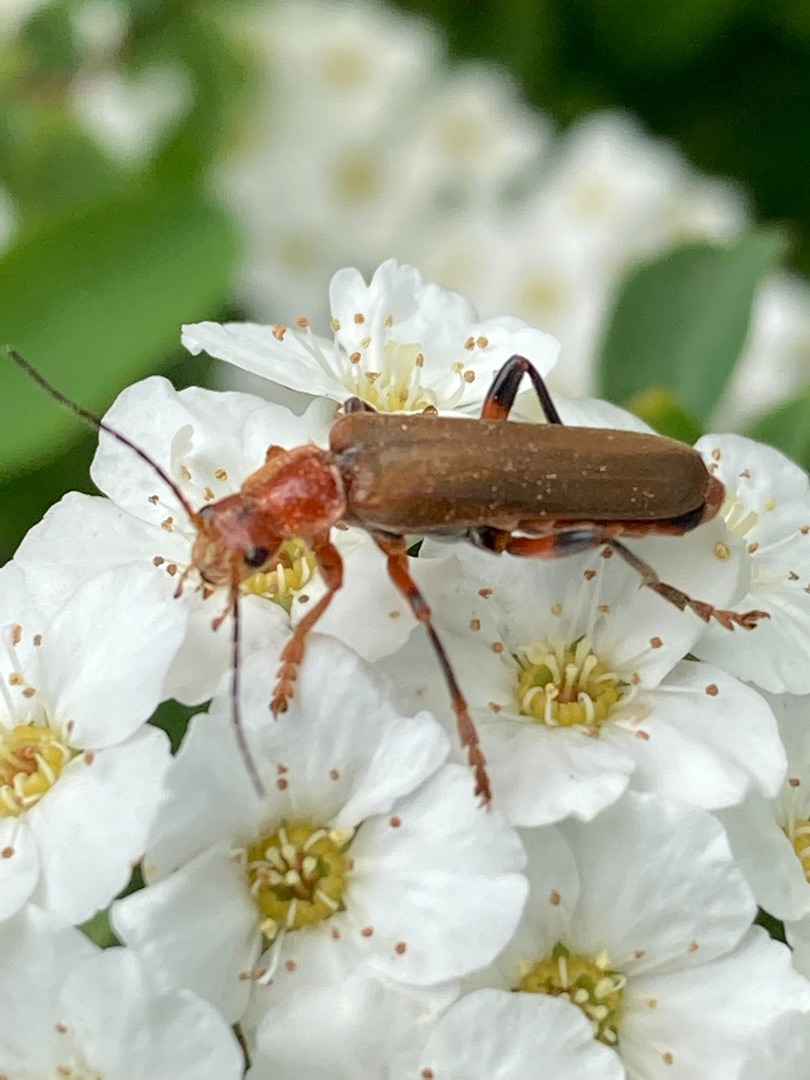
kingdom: Animalia
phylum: Arthropoda
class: Insecta
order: Coleoptera
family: Cantharidae
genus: Cantharis
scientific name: Cantharis livida
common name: Gul blødvinge
